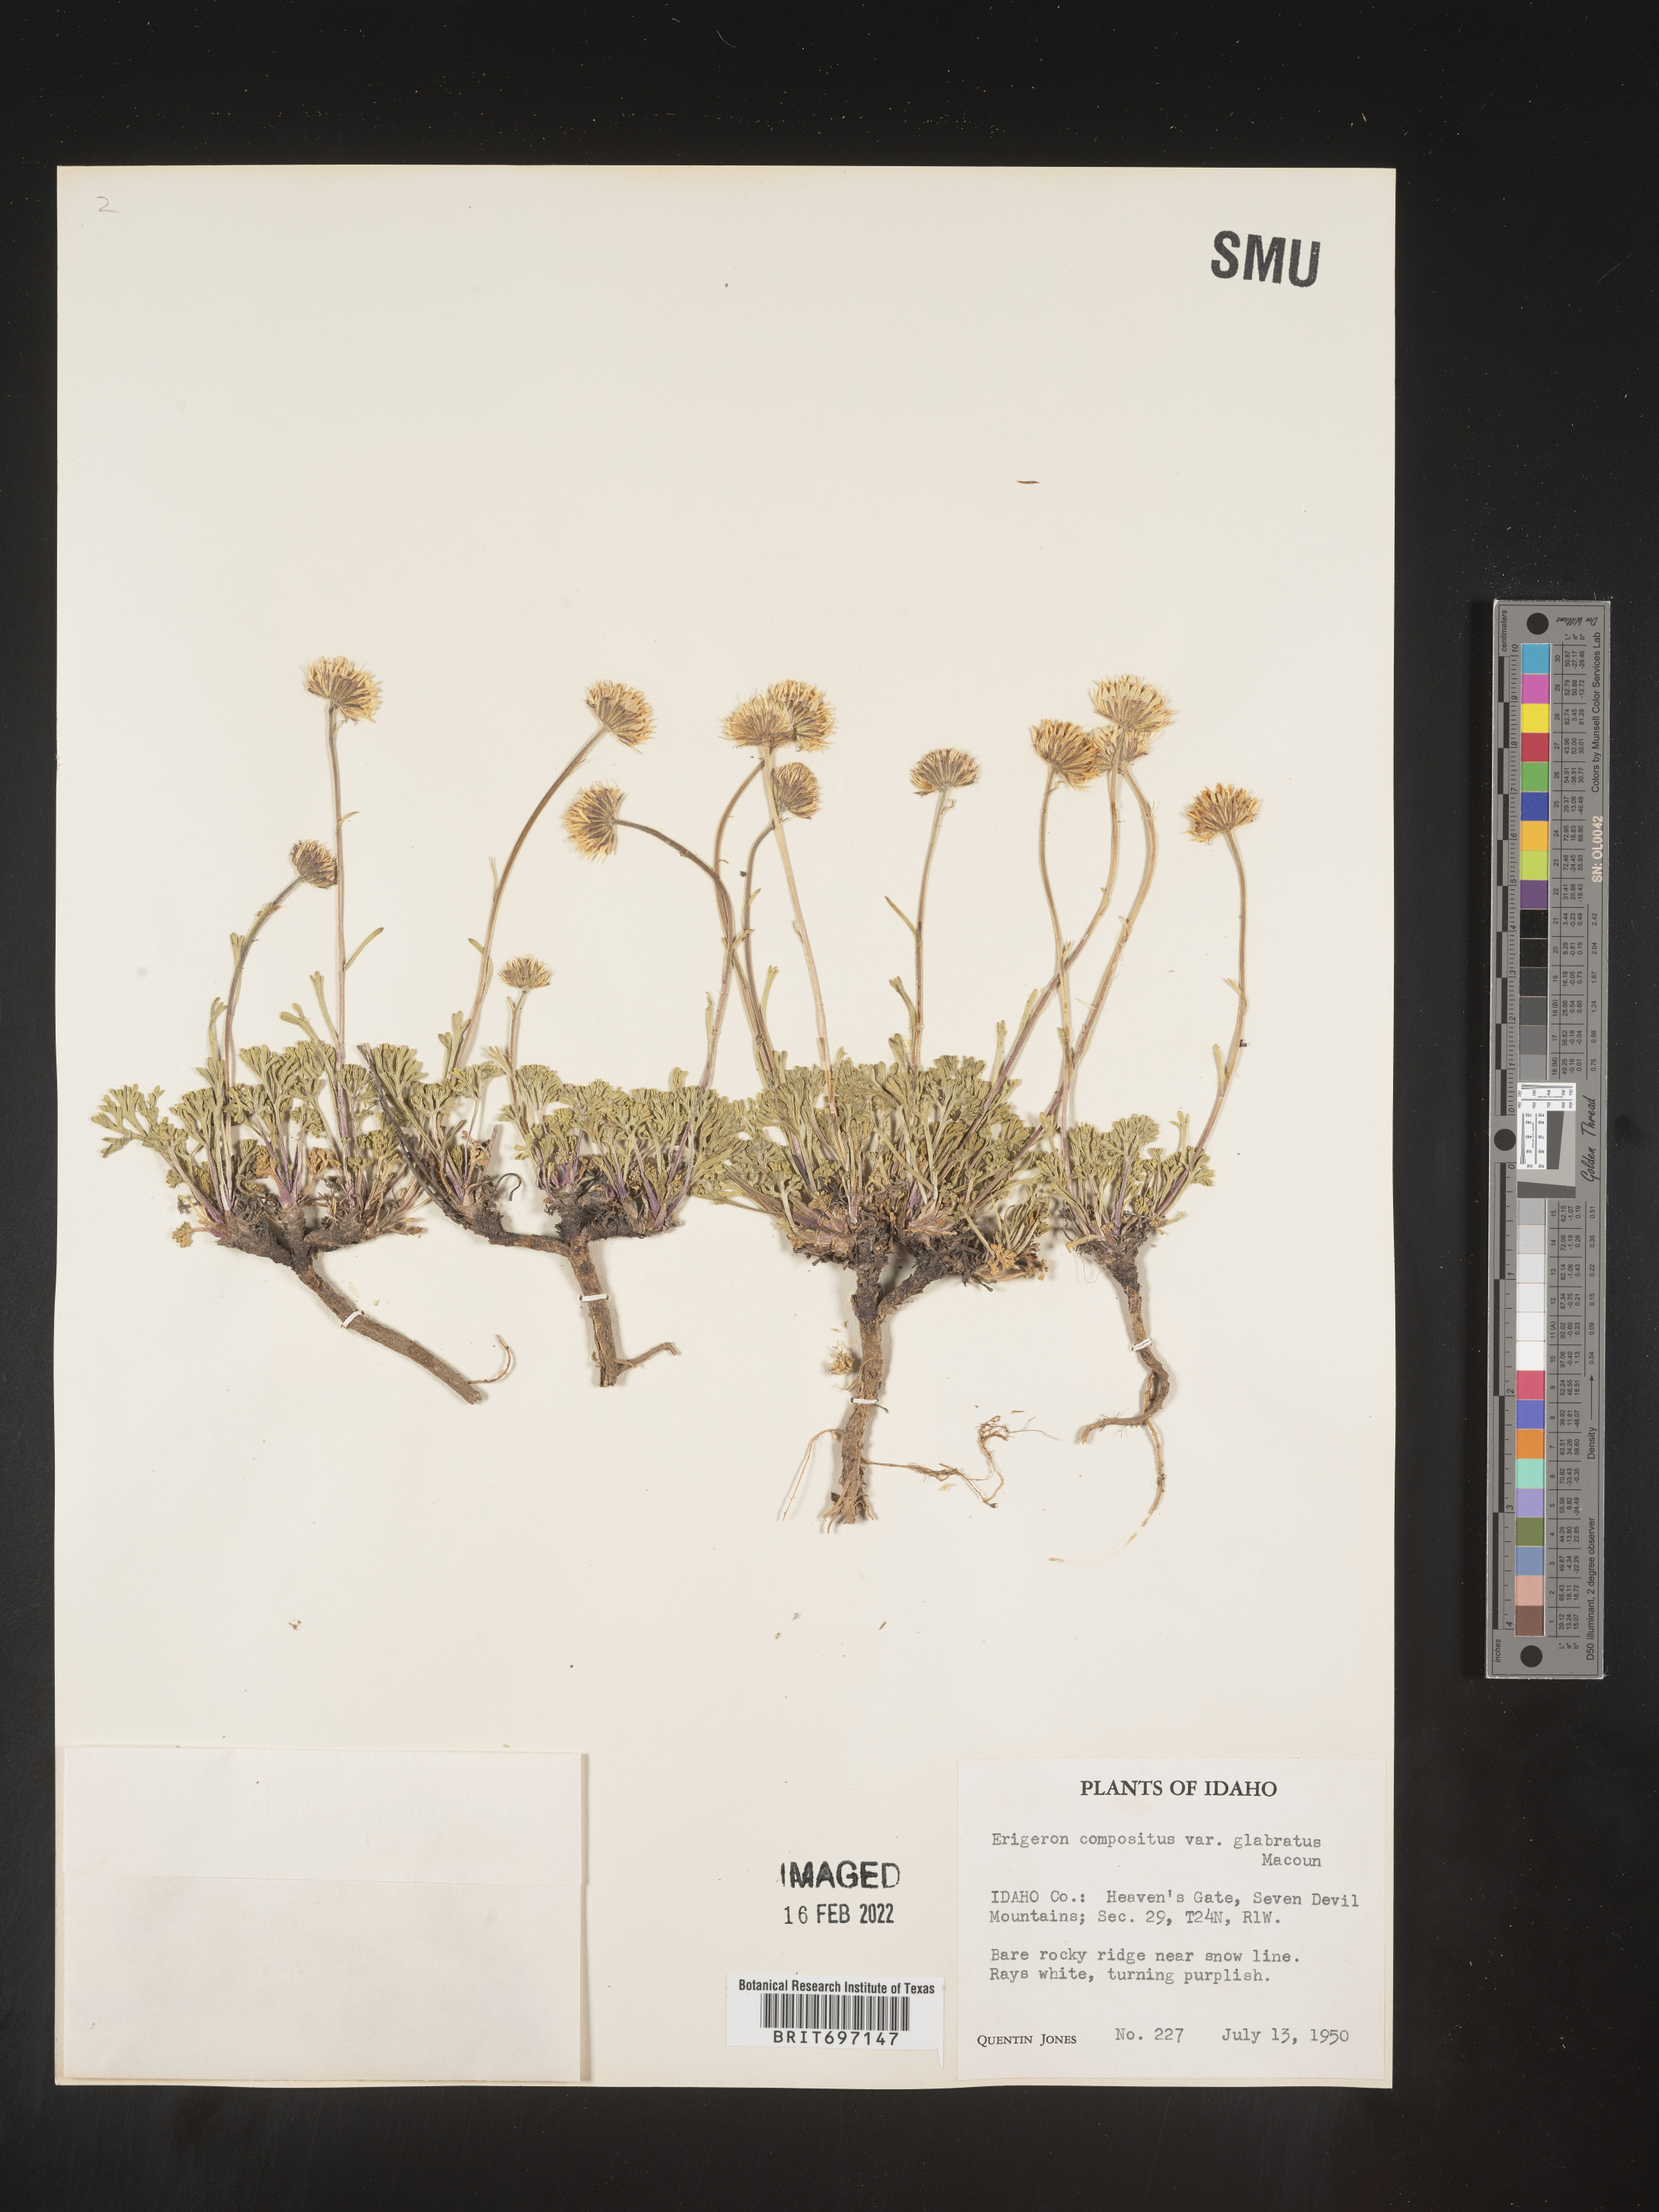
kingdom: Plantae
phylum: Tracheophyta
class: Magnoliopsida
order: Asterales
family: Asteraceae
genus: Erigeron
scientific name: Erigeron compositus
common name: Dwarf mountain fleabane
